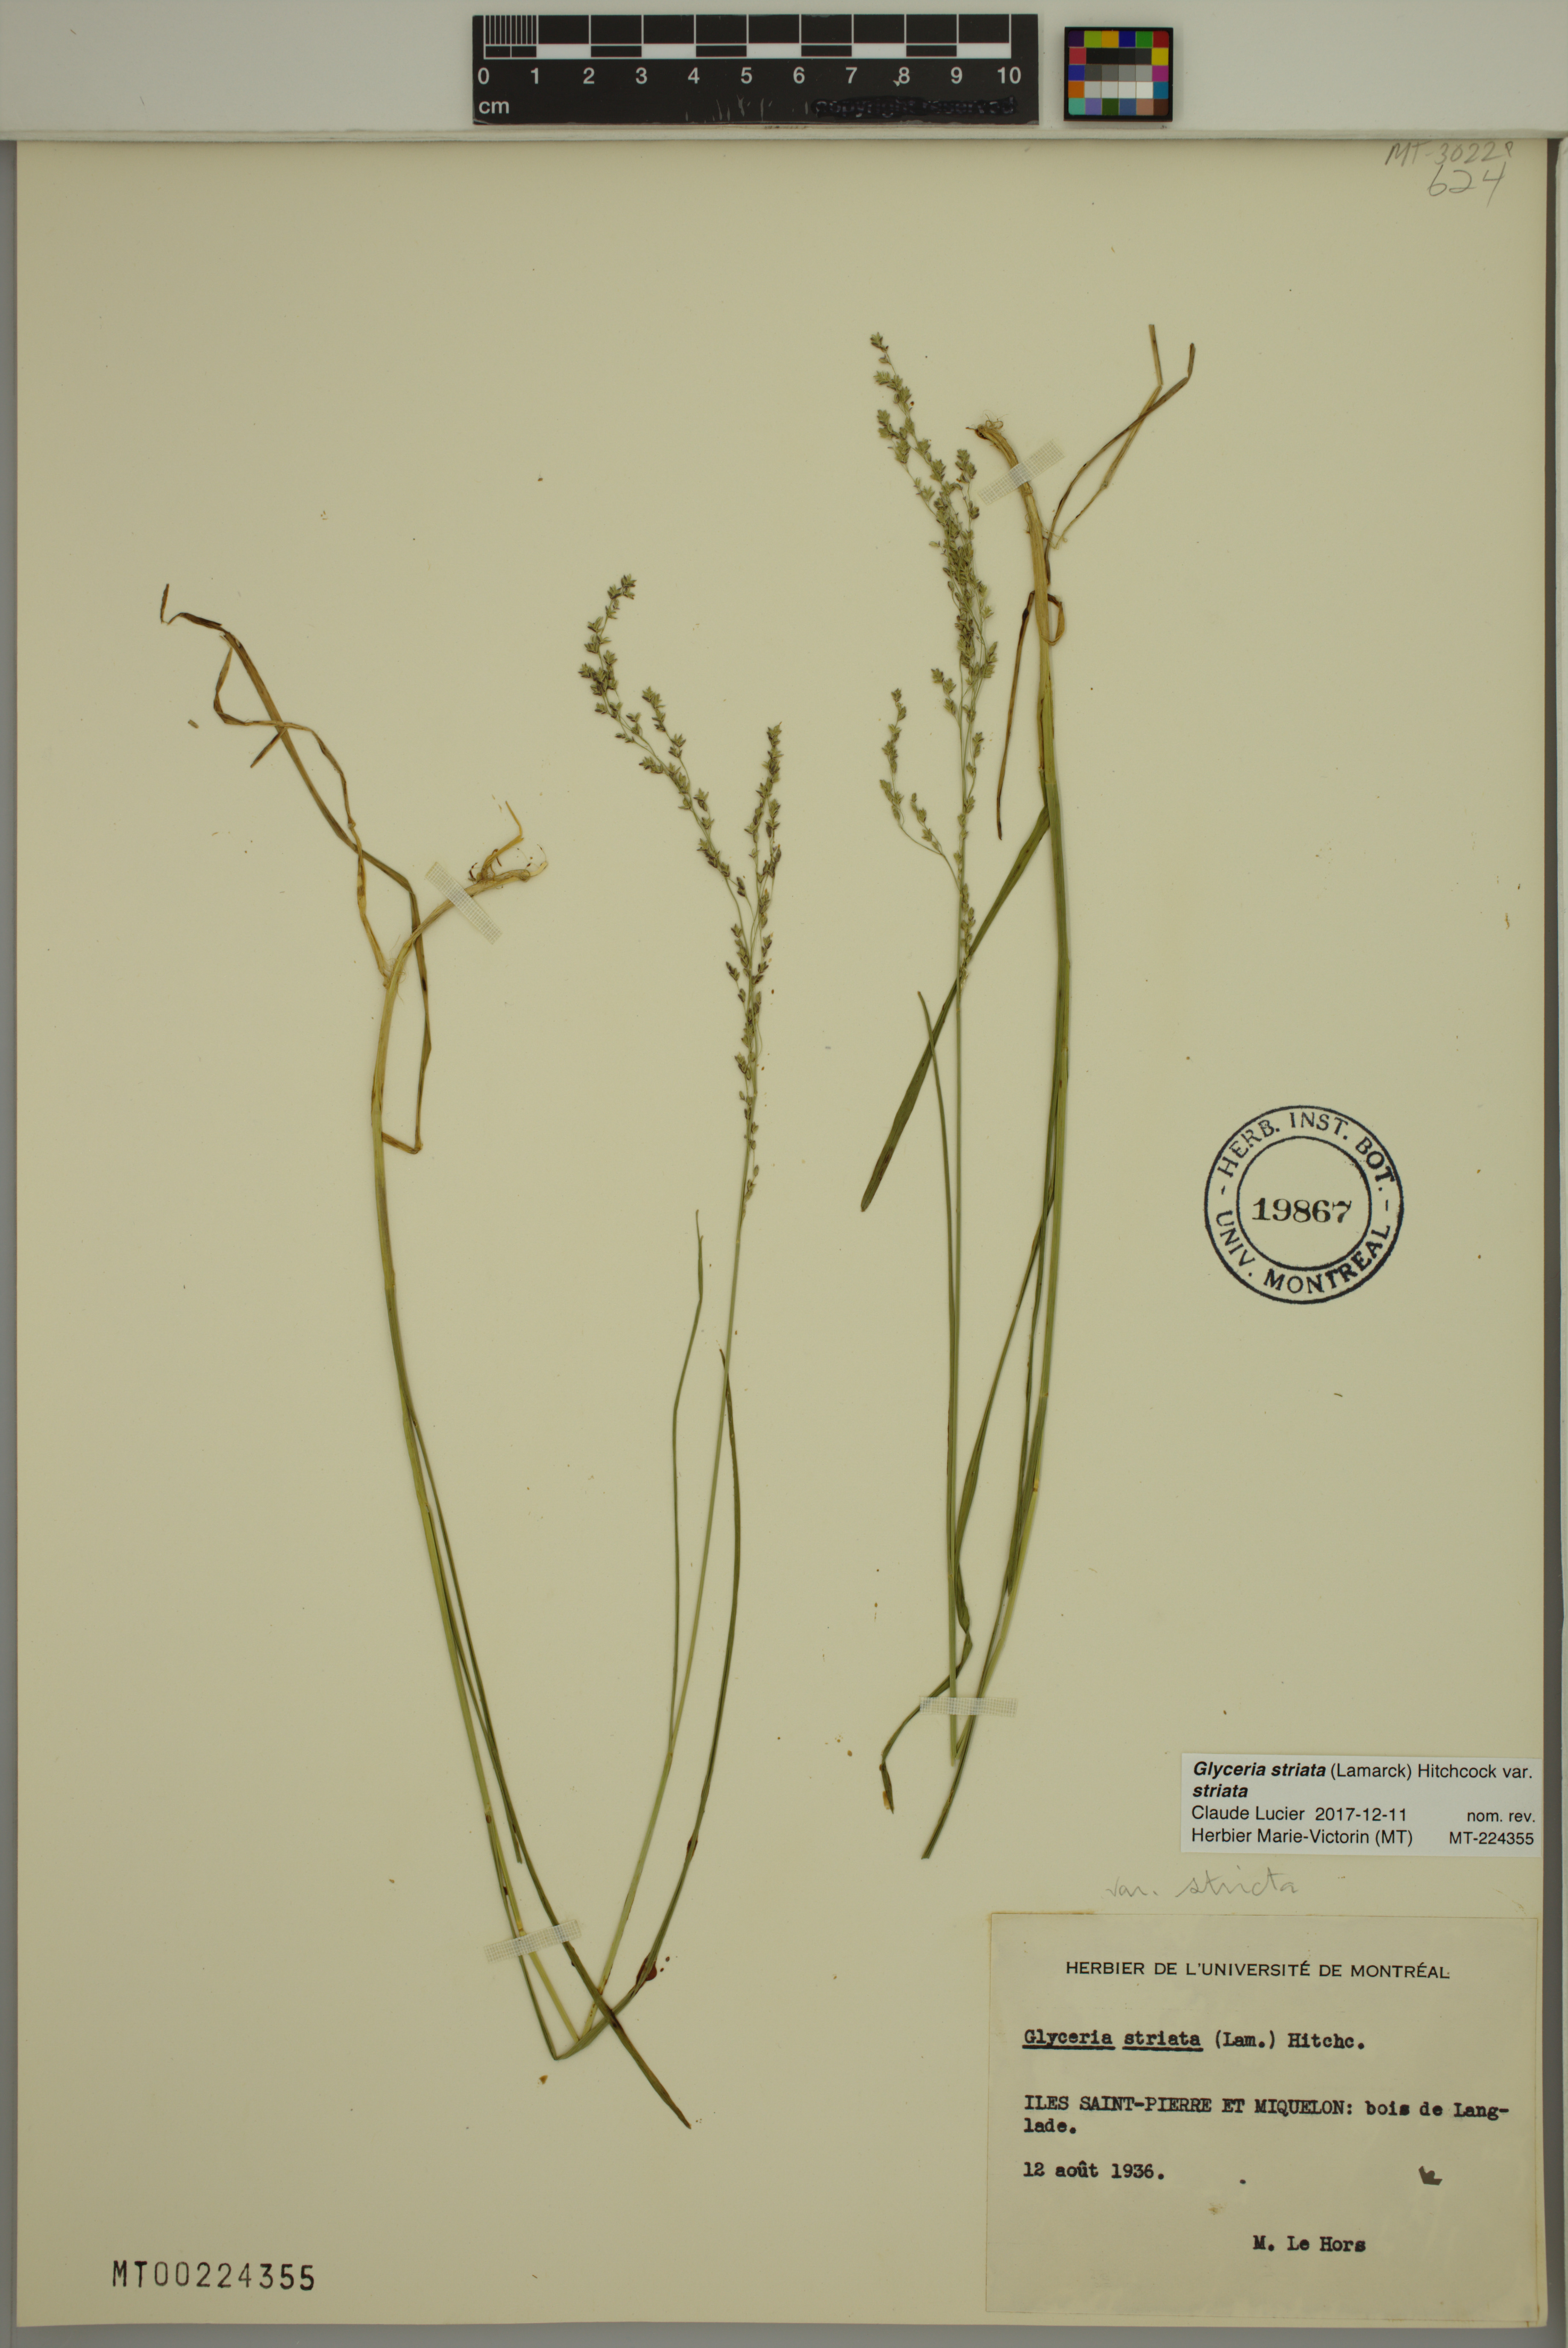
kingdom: Plantae
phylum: Tracheophyta
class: Liliopsida
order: Poales
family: Poaceae
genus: Glyceria
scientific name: Glyceria striata
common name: Fowl manna grass
